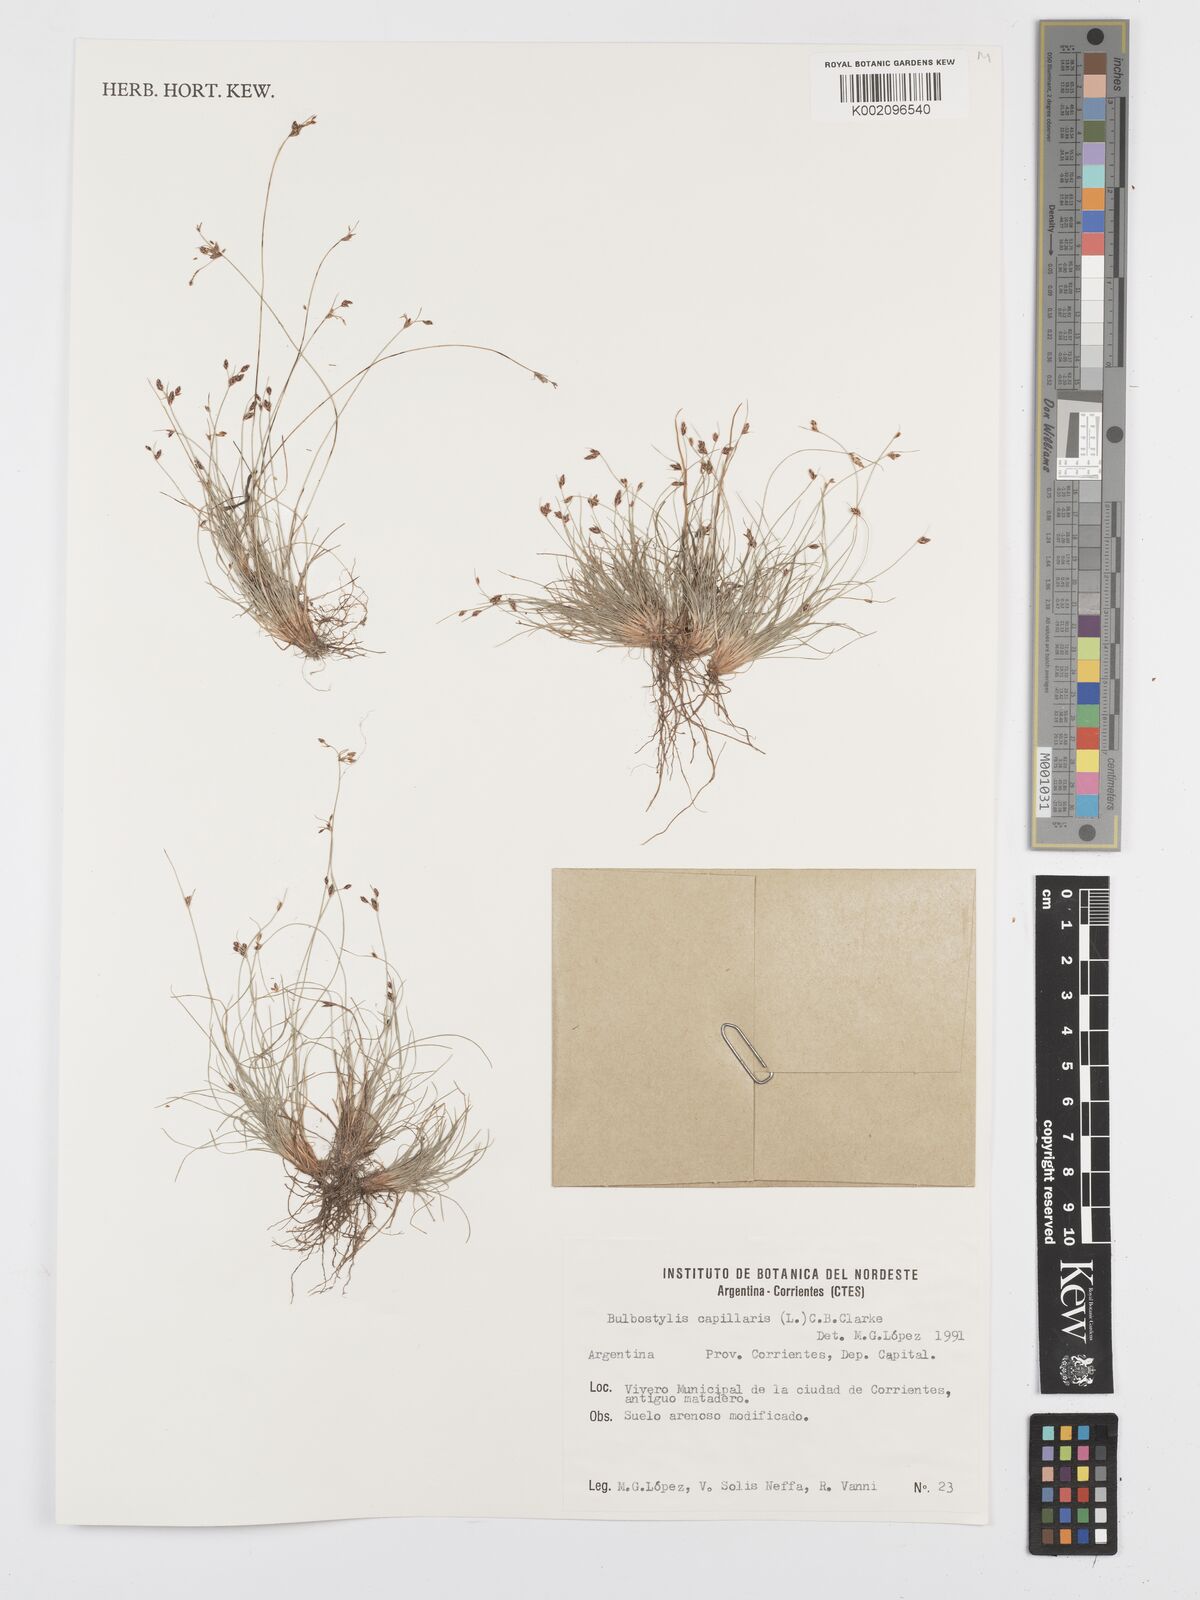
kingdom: Plantae
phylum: Tracheophyta
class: Liliopsida
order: Poales
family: Cyperaceae
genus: Bulbostylis
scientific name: Bulbostylis capillaris
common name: Densetuft hairsedge
